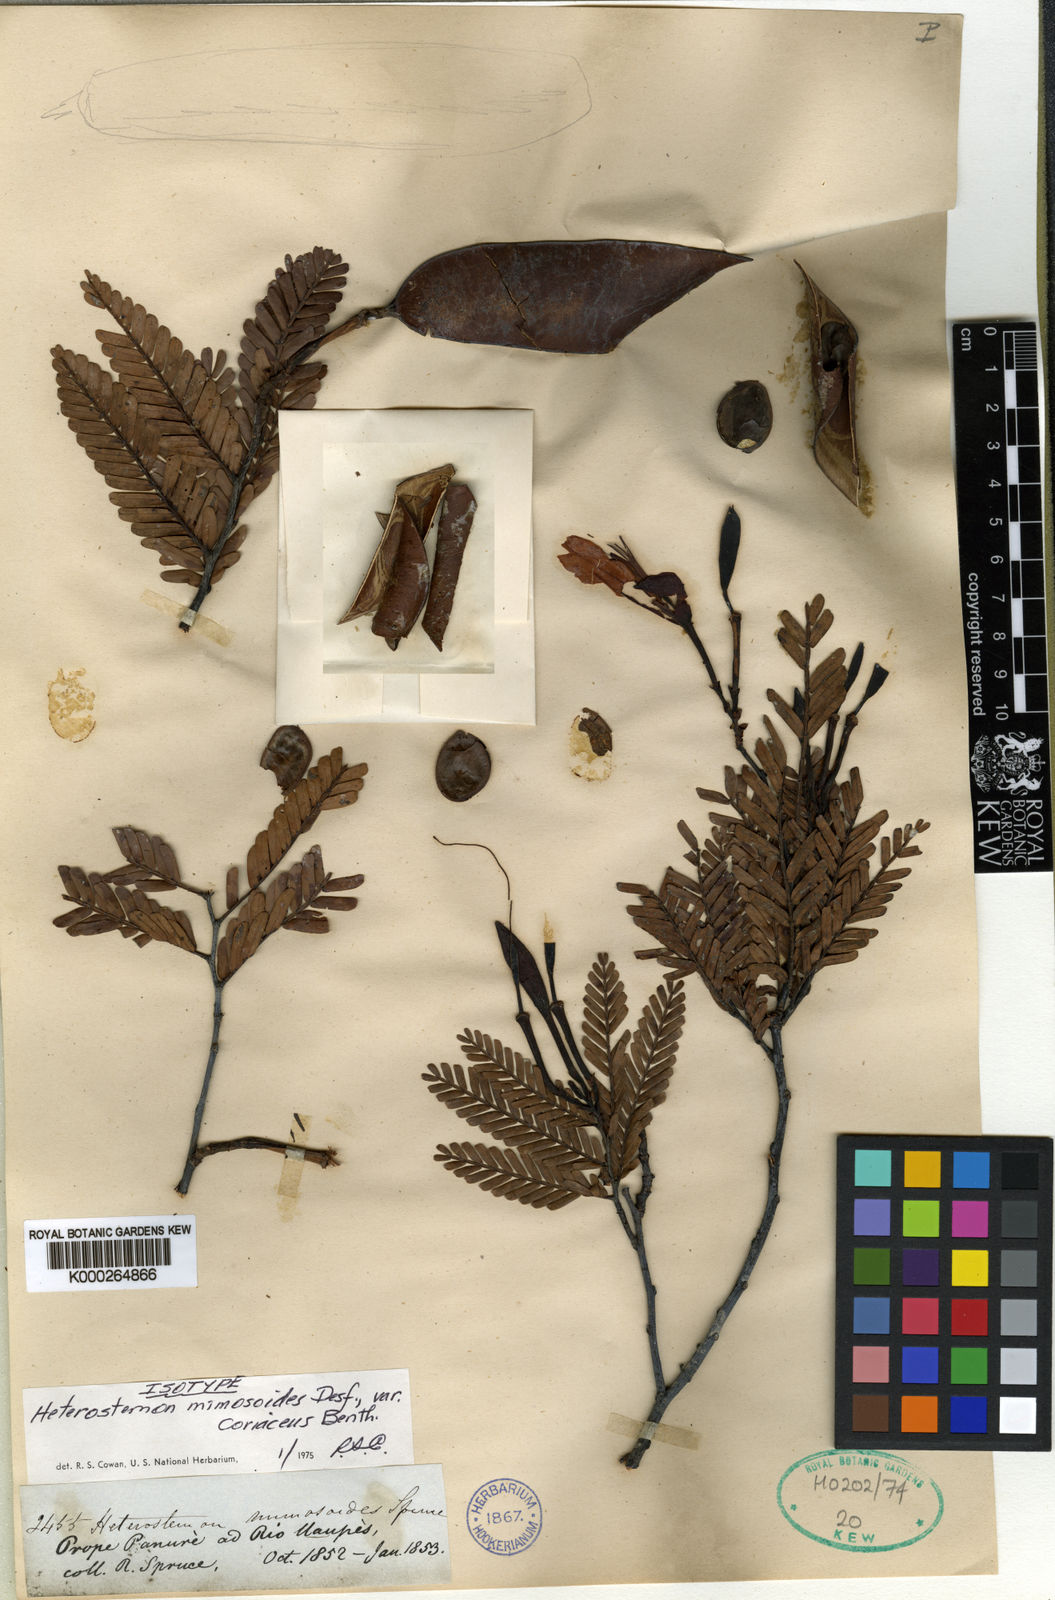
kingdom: Plantae
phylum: Tracheophyta
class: Magnoliopsida
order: Fabales
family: Fabaceae
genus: Heterostemon
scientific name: Heterostemon mimosoides
